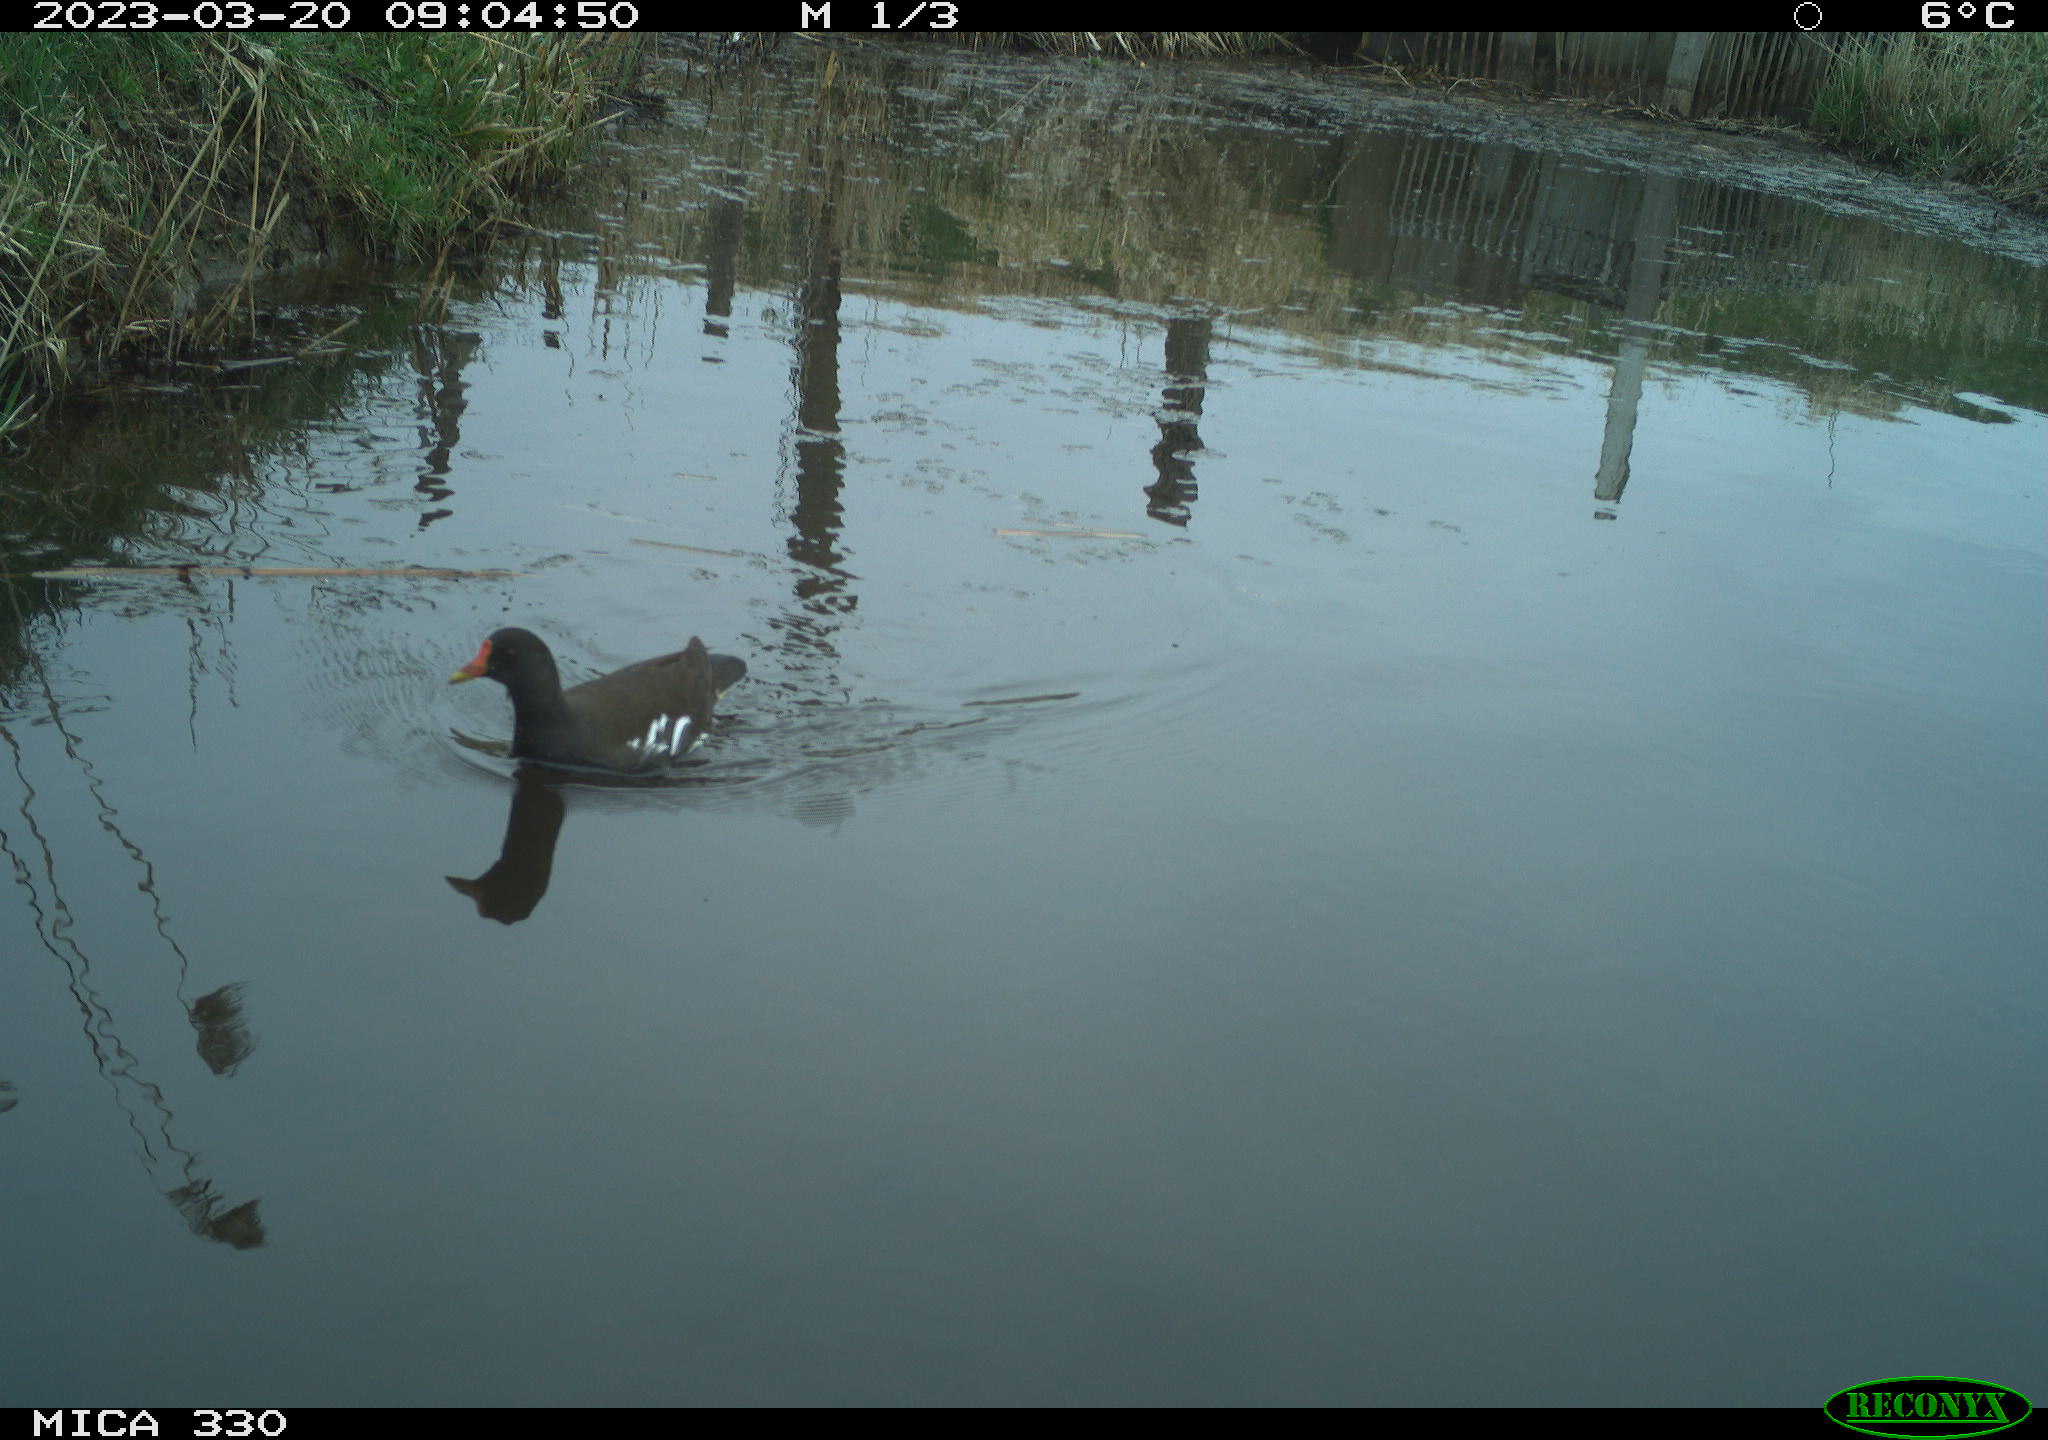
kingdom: Animalia
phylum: Chordata
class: Aves
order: Gruiformes
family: Rallidae
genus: Gallinula
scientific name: Gallinula chloropus
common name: Common moorhen
